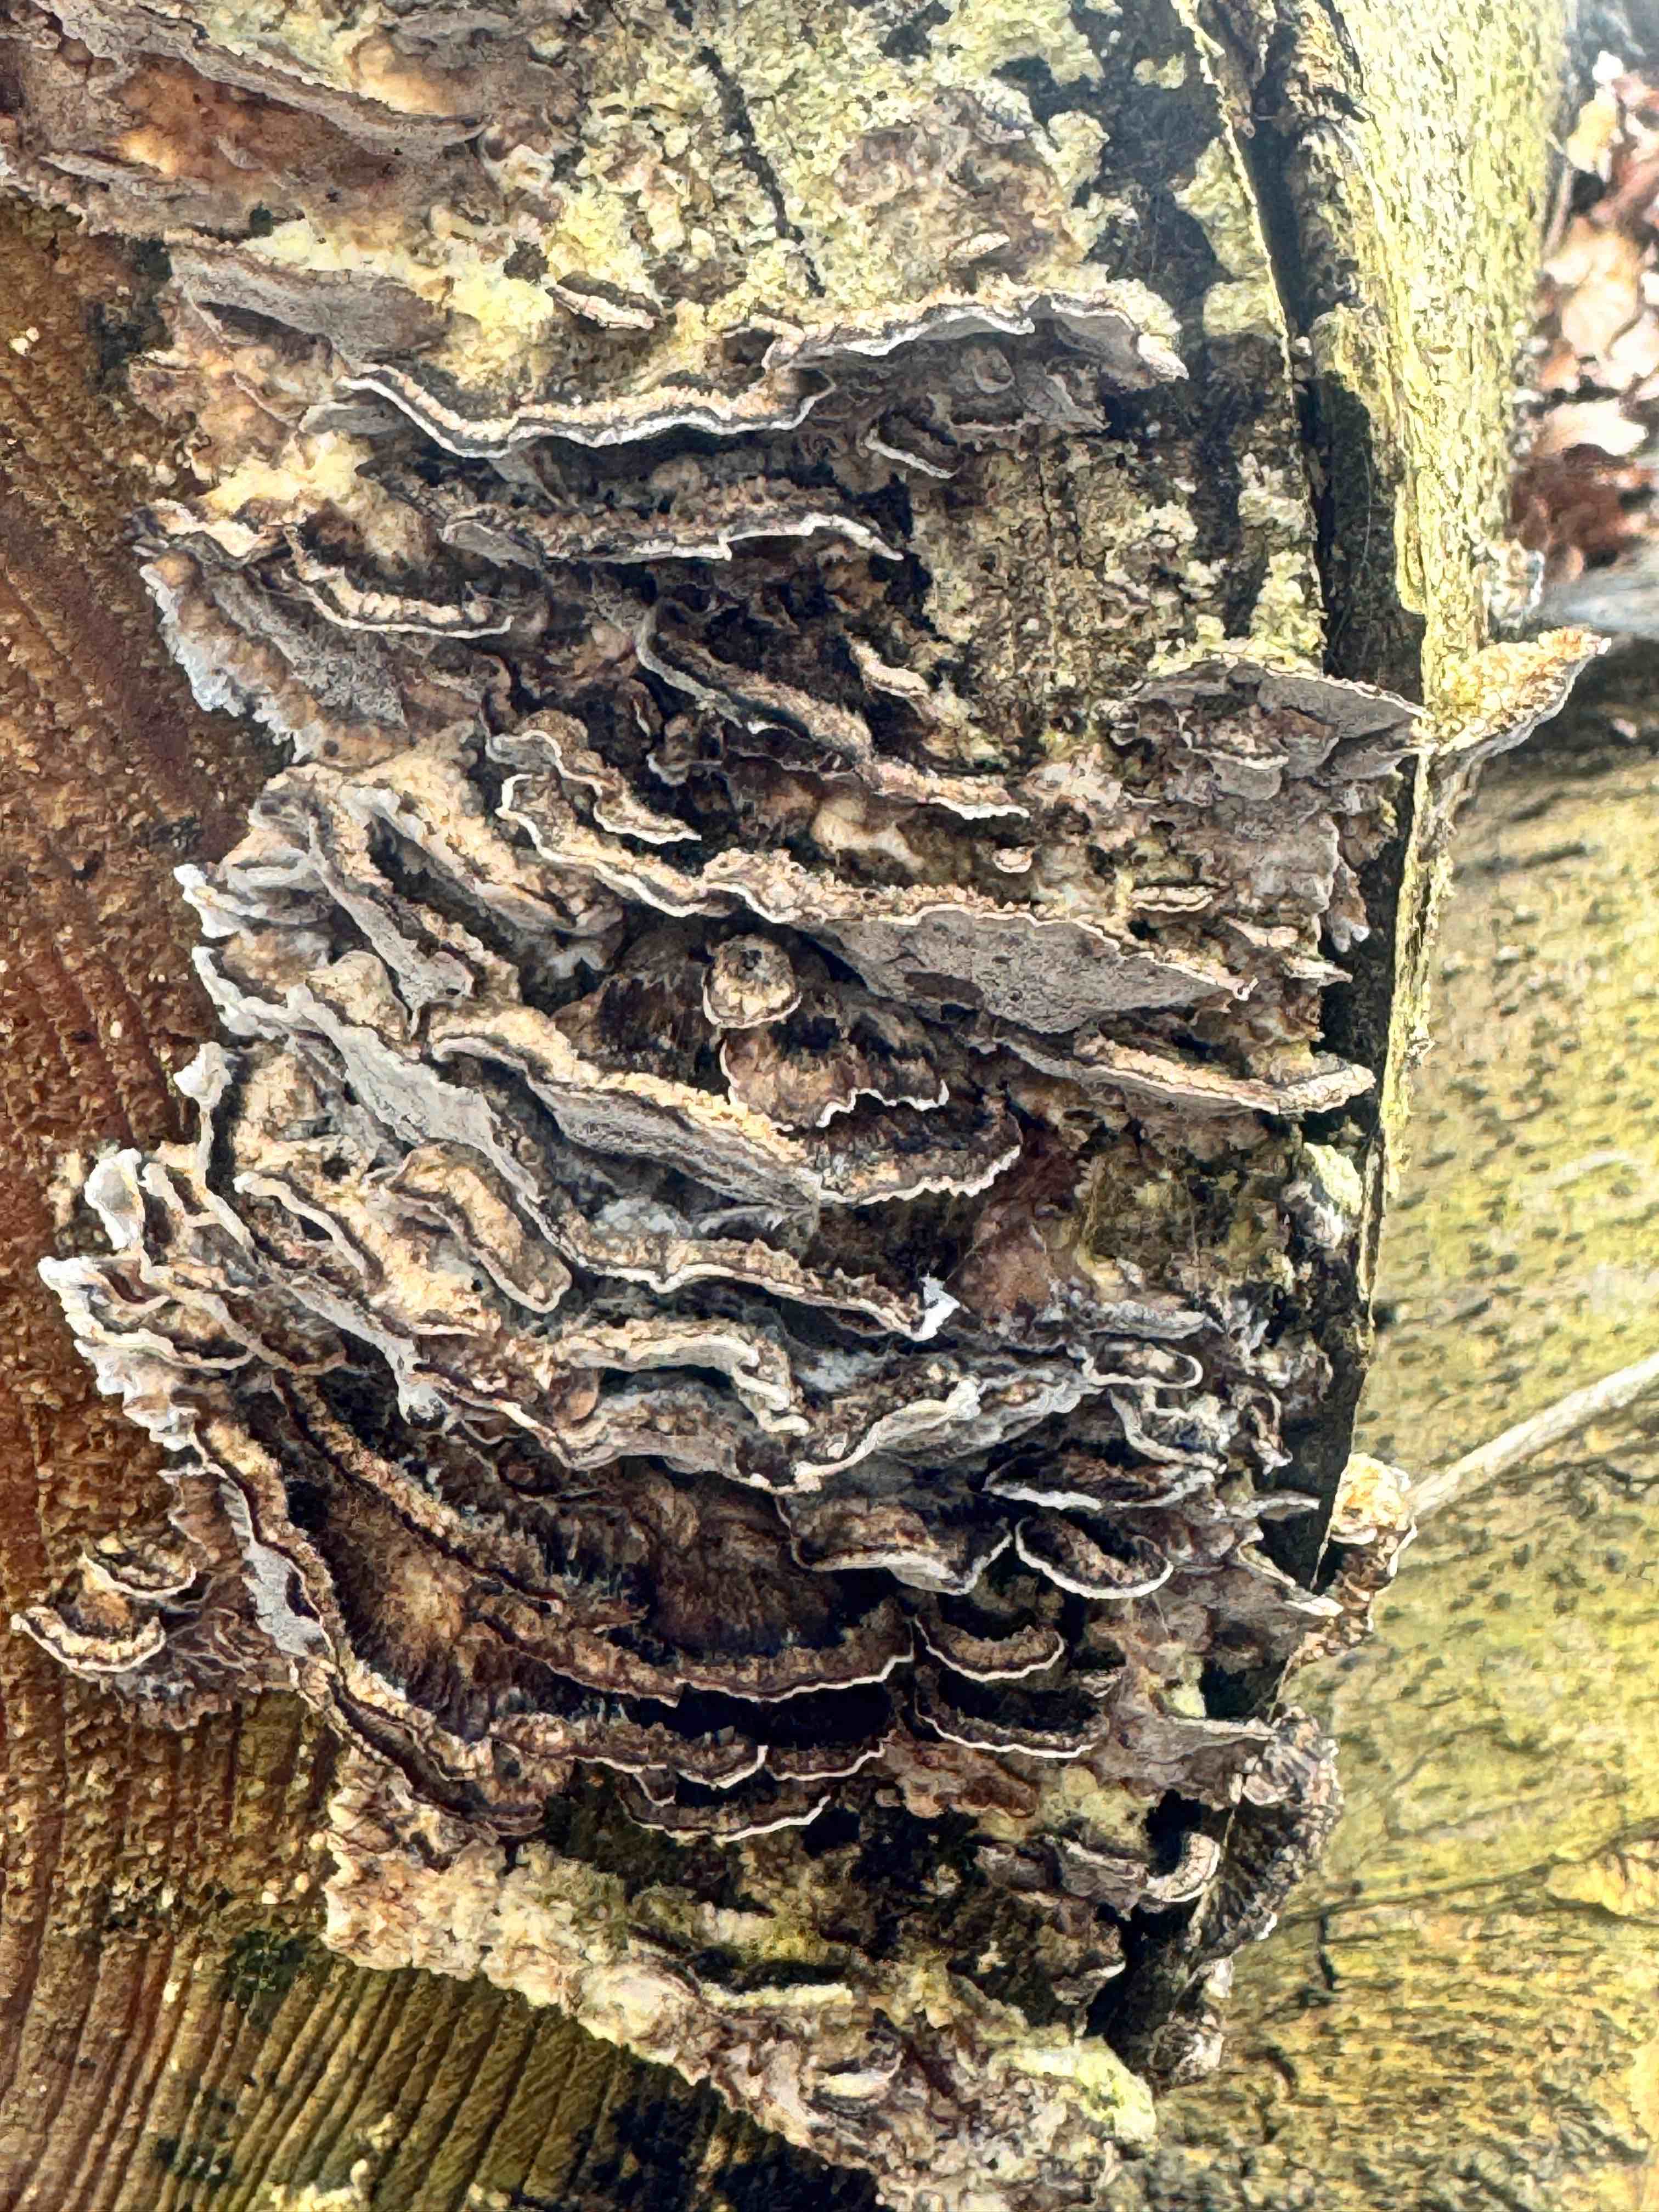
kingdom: Fungi
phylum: Basidiomycota
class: Agaricomycetes
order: Polyporales
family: Phanerochaetaceae
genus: Bjerkandera
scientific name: Bjerkandera adusta
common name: sveden sodporesvamp
